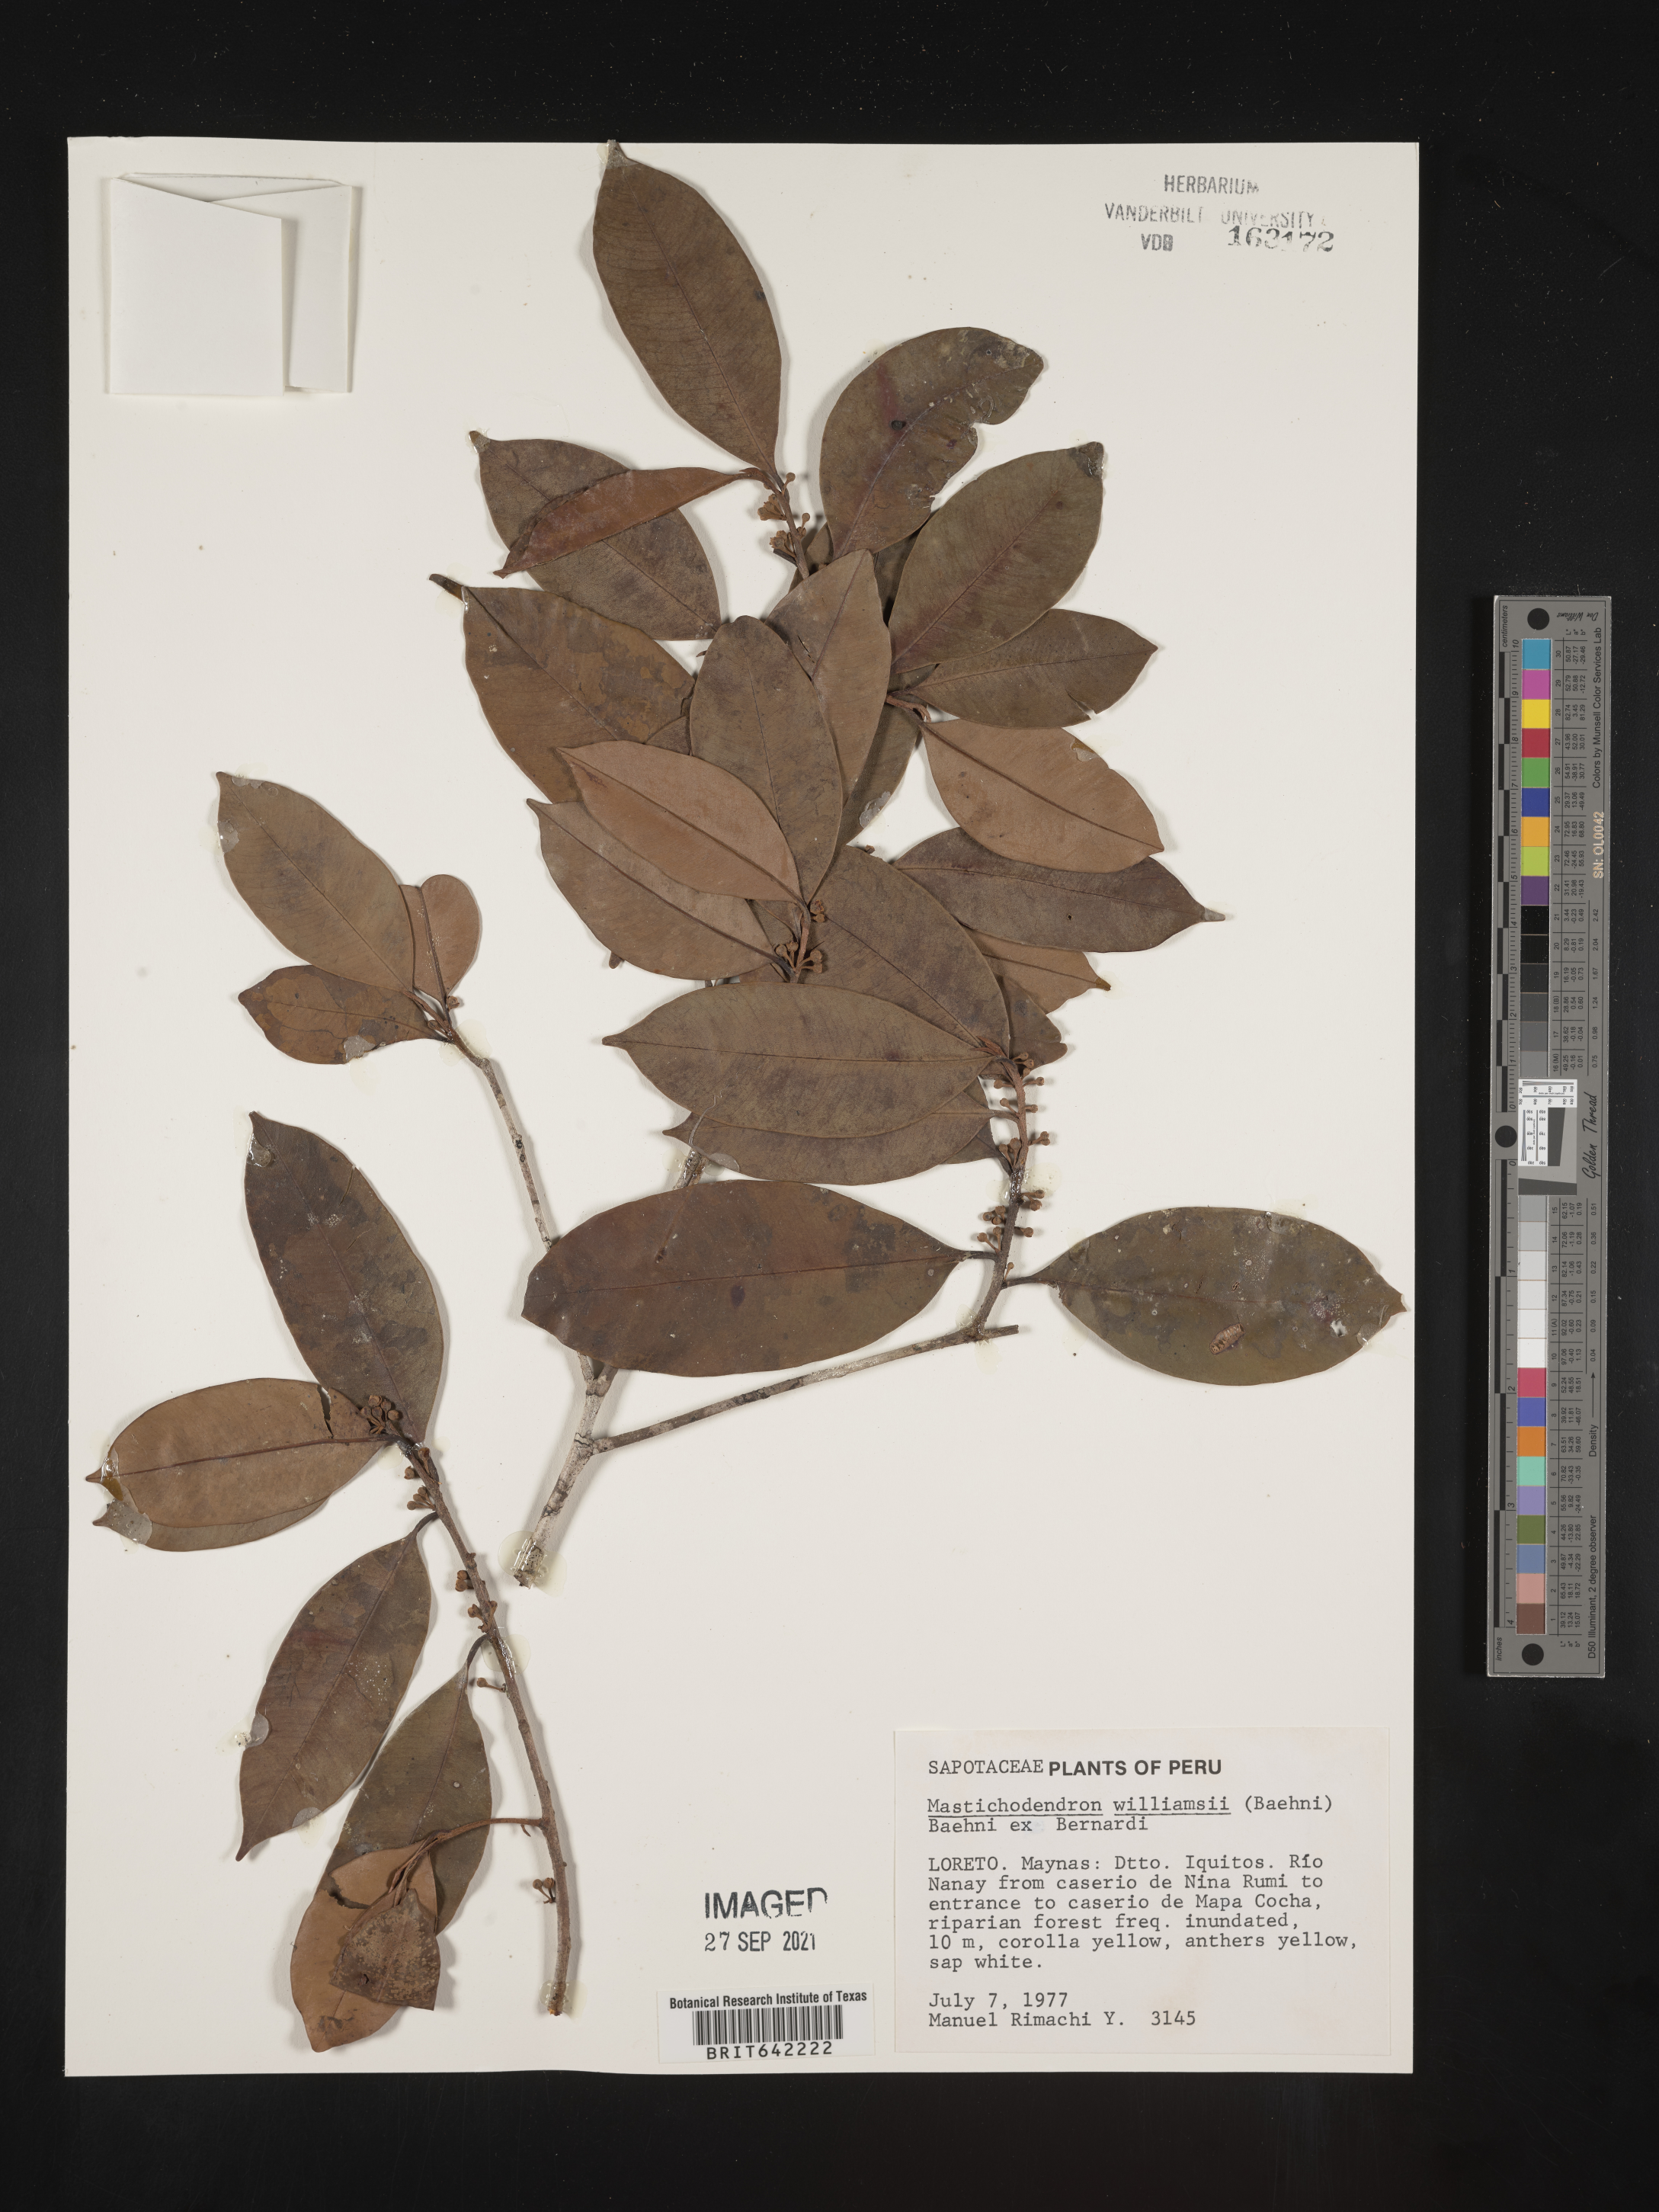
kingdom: Plantae
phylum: Tracheophyta
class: Magnoliopsida
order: Ericales
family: Sapotaceae
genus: Mastichodendron
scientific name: Mastichodendron
